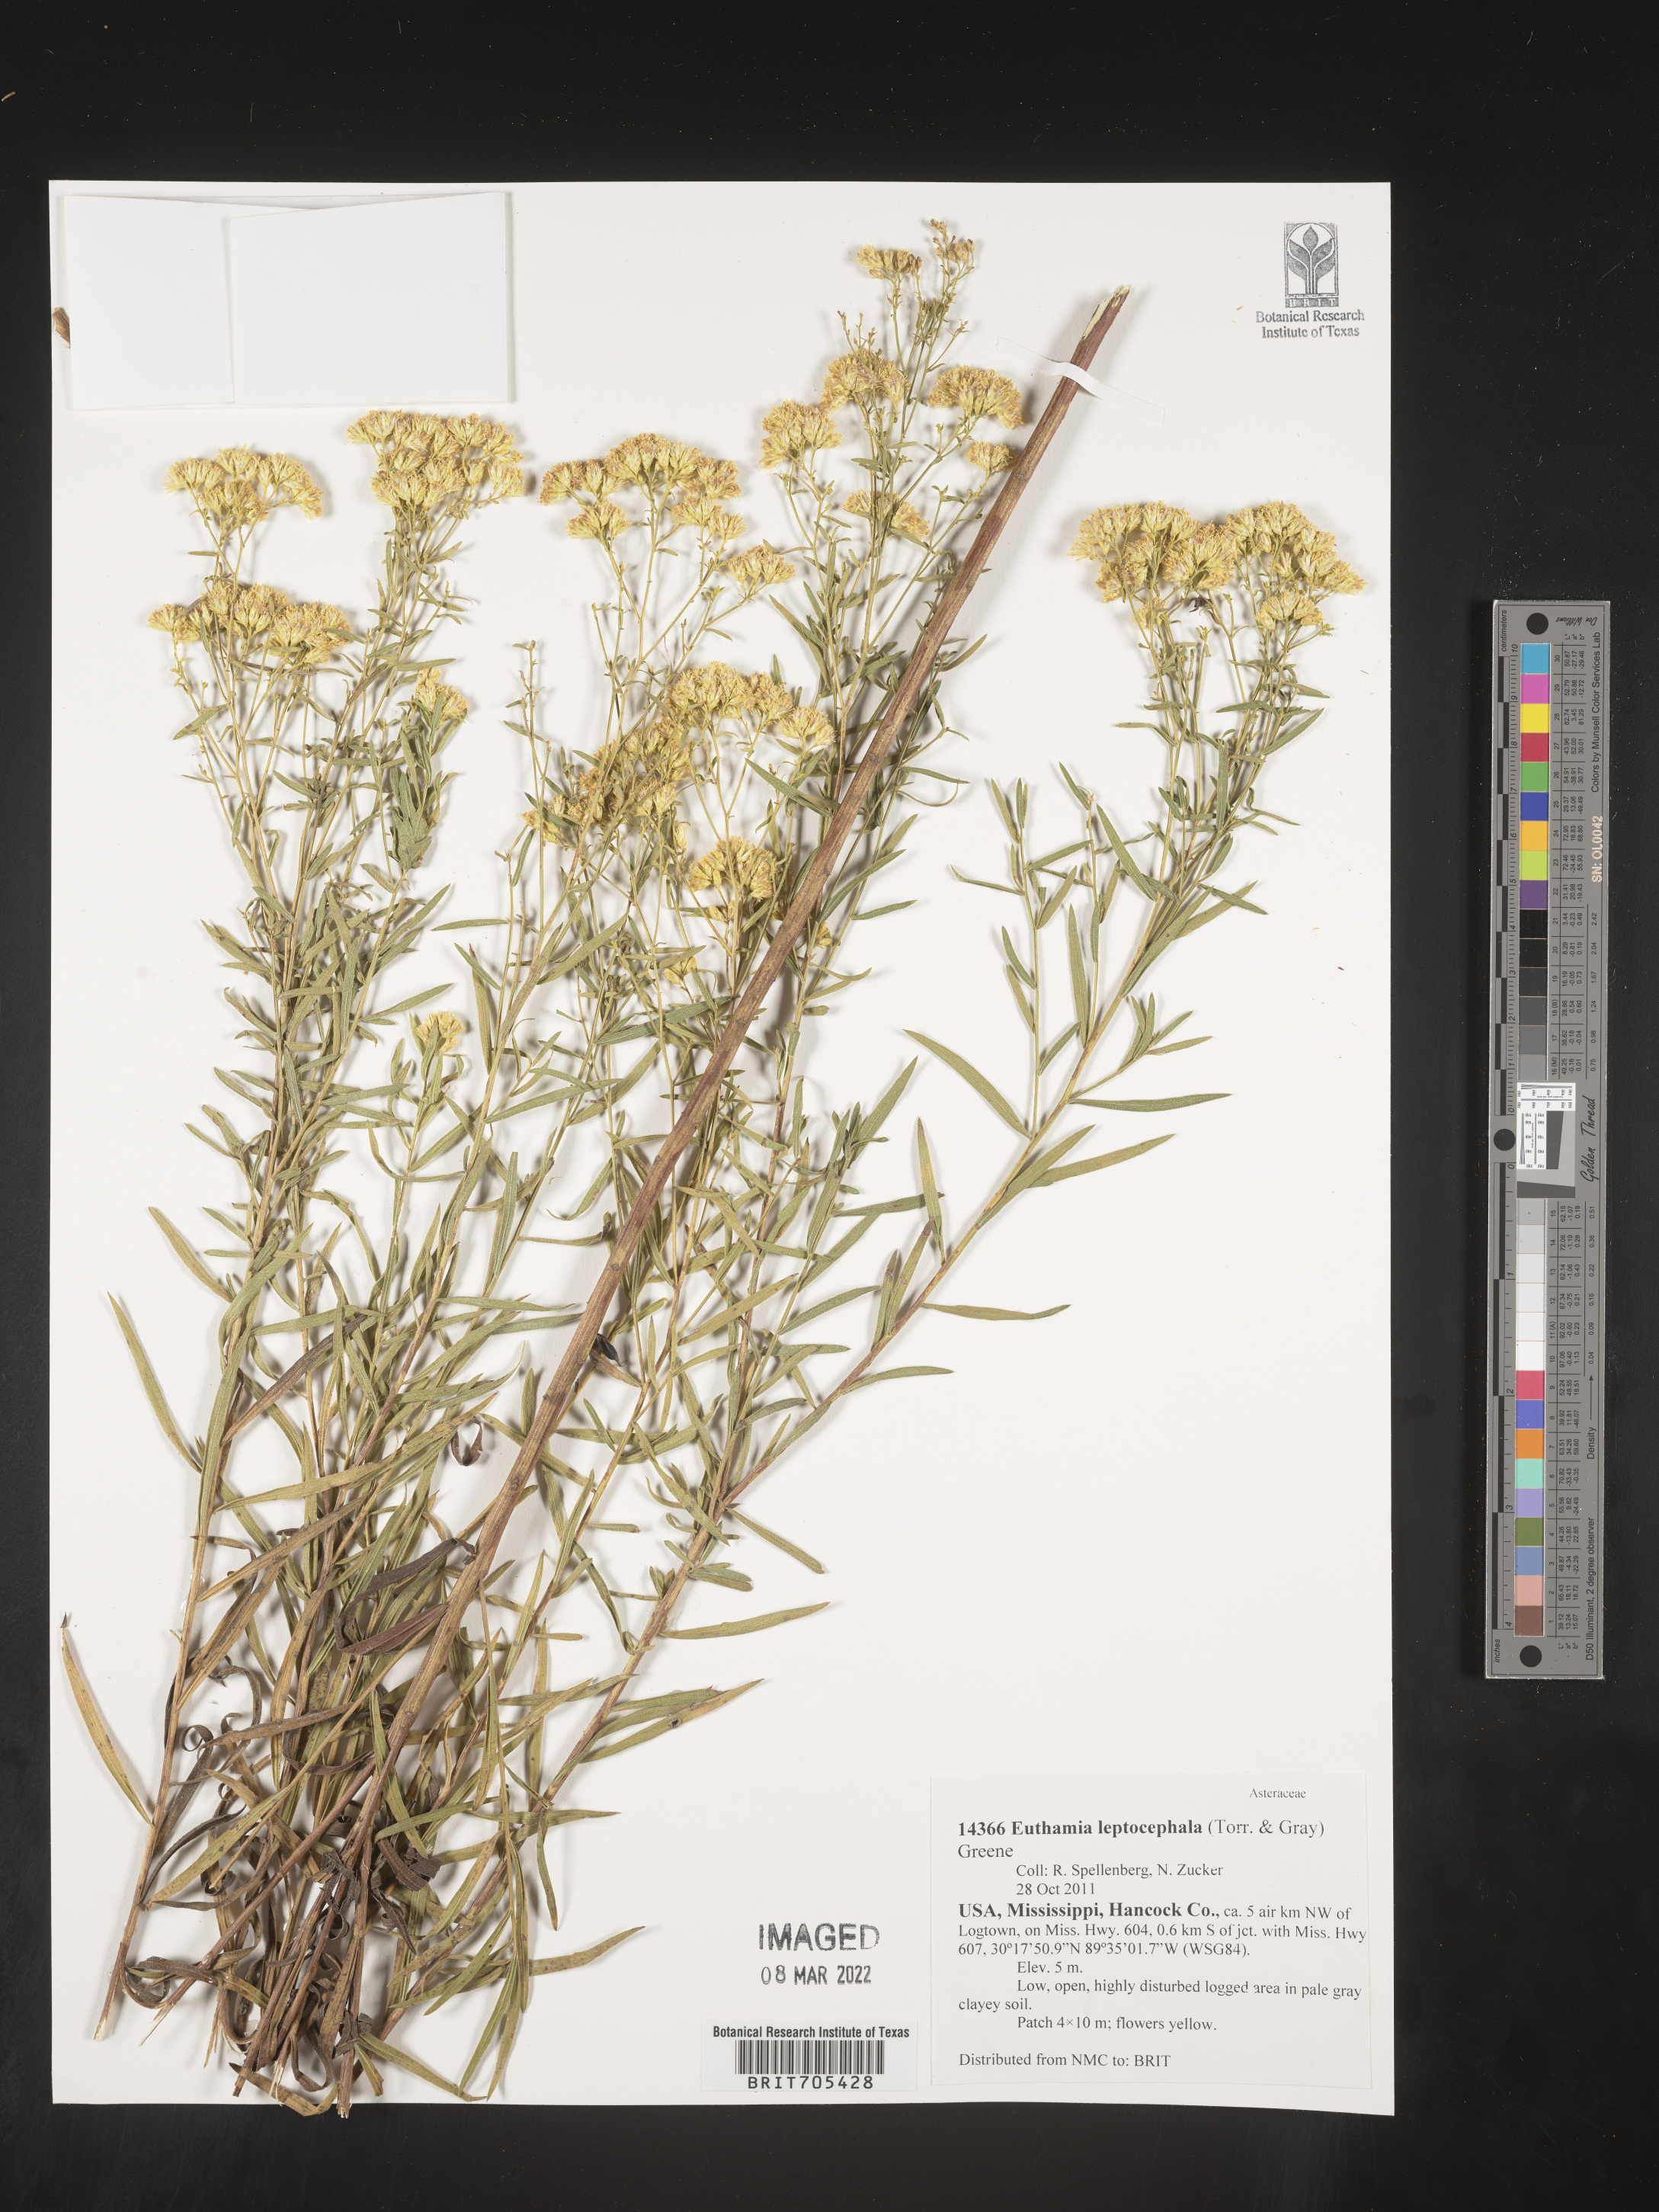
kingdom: Plantae
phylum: Tracheophyta
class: Magnoliopsida
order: Asterales
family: Asteraceae
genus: Euthamia
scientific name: Euthamia
